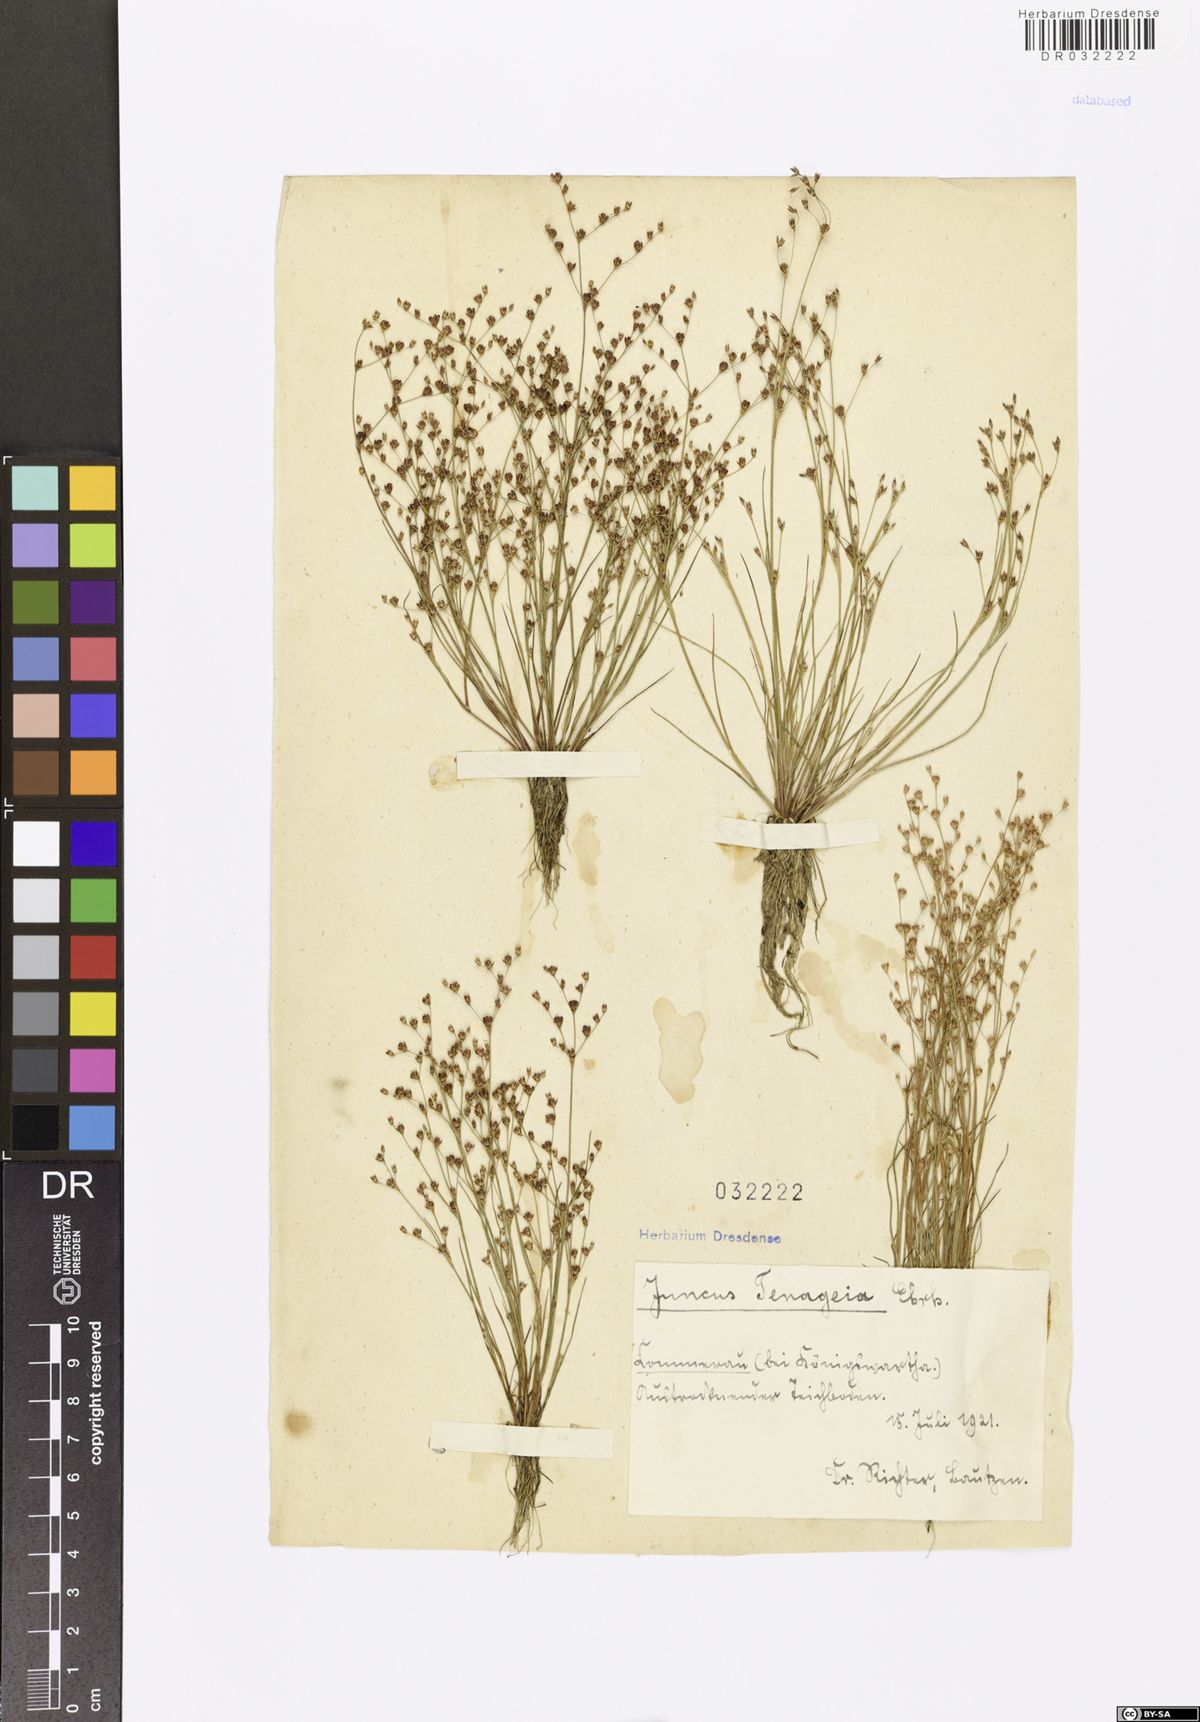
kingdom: Plantae
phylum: Tracheophyta
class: Liliopsida
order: Poales
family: Juncaceae
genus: Juncus
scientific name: Juncus tenageia
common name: Sand rush
